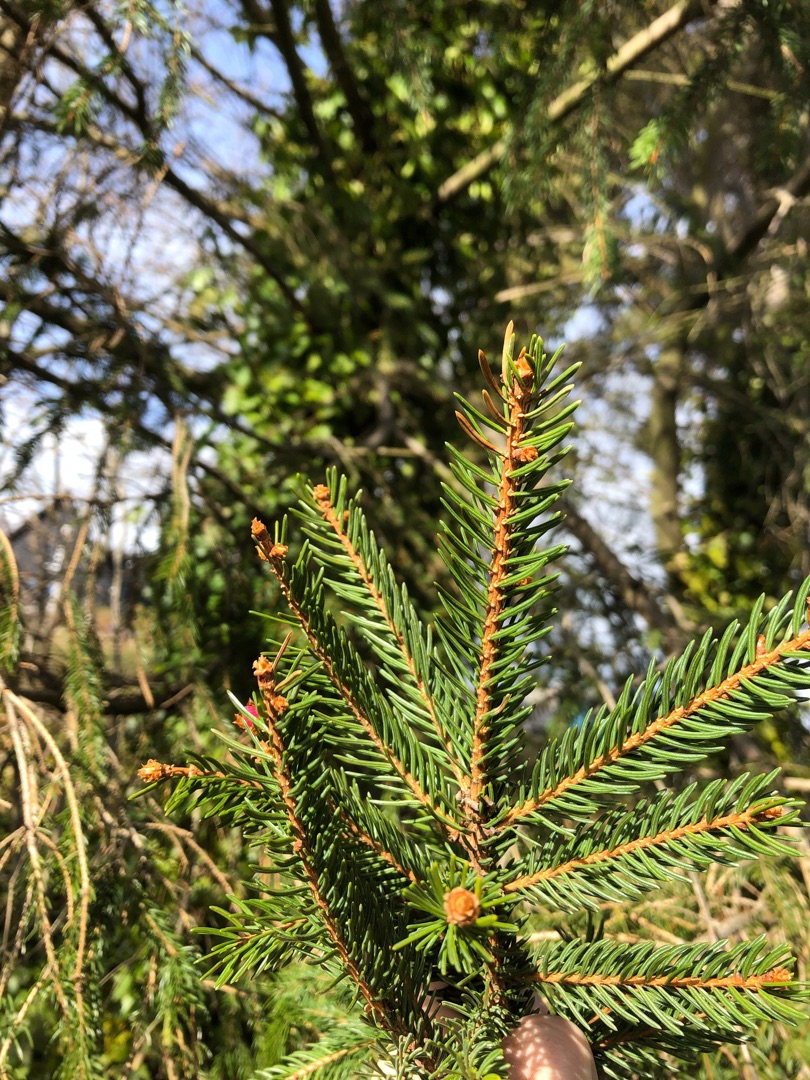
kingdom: Plantae
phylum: Tracheophyta
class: Pinopsida
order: Pinales
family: Pinaceae
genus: Picea
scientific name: Picea abies
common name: Rød-gran
